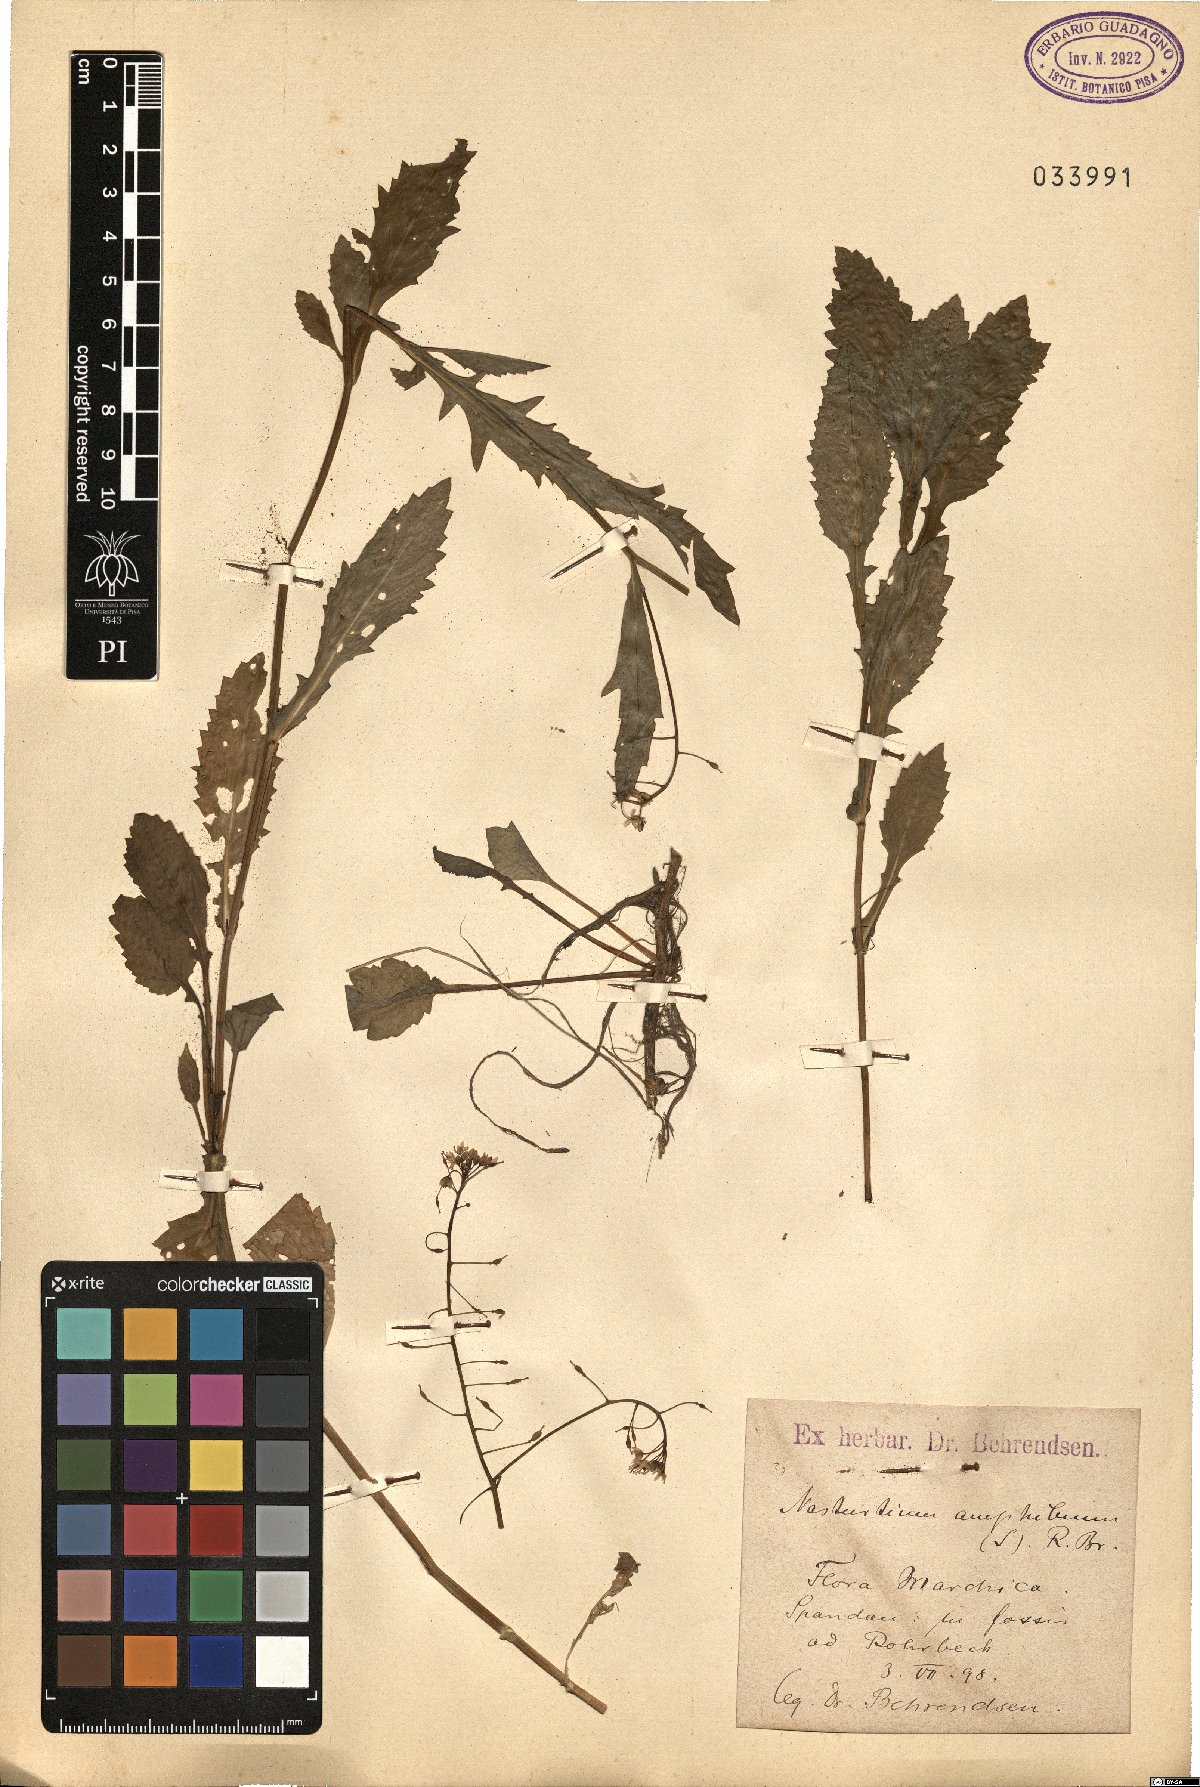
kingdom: Plantae
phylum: Tracheophyta
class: Magnoliopsida
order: Brassicales
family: Brassicaceae
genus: Rorippa
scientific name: Rorippa amphibia
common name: Great yellow-cress
